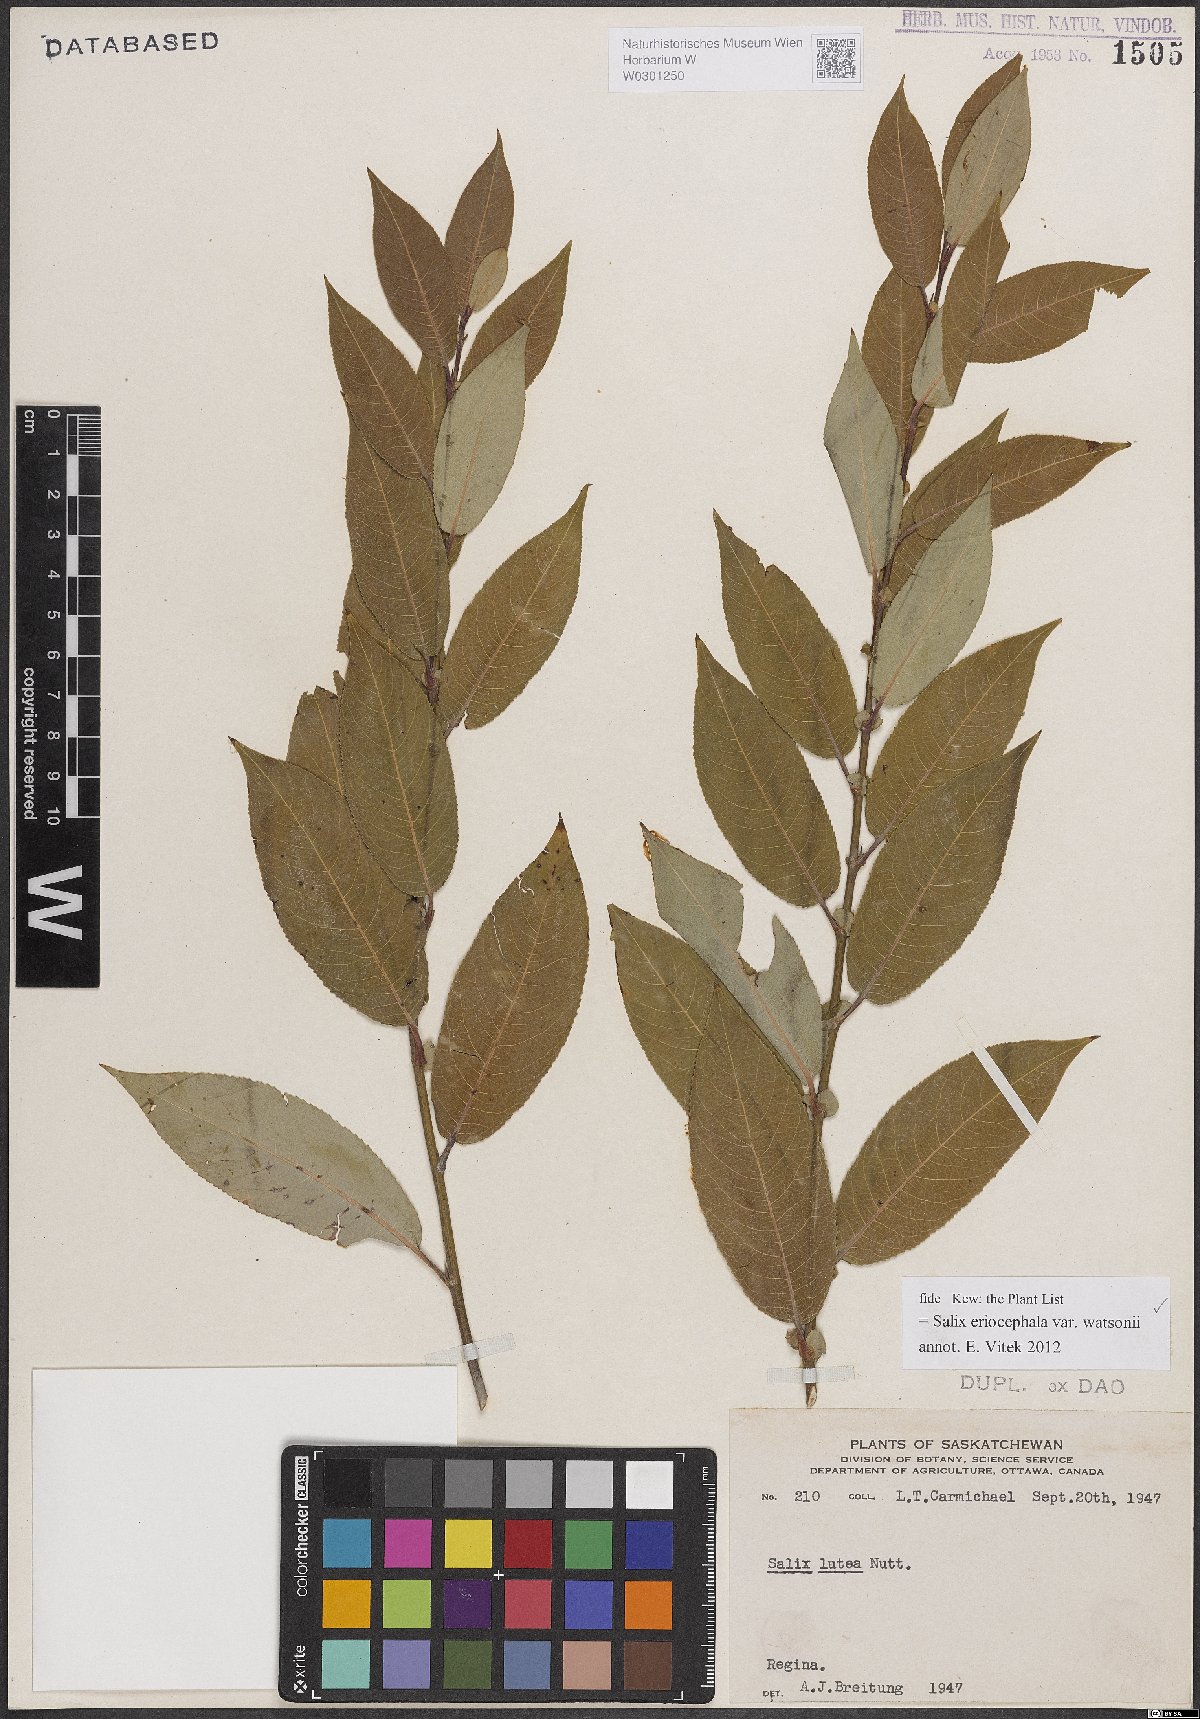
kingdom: Plantae
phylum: Tracheophyta
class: Magnoliopsida
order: Malpighiales
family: Salicaceae
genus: Salix
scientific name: Salix lutea
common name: Yellow willow
